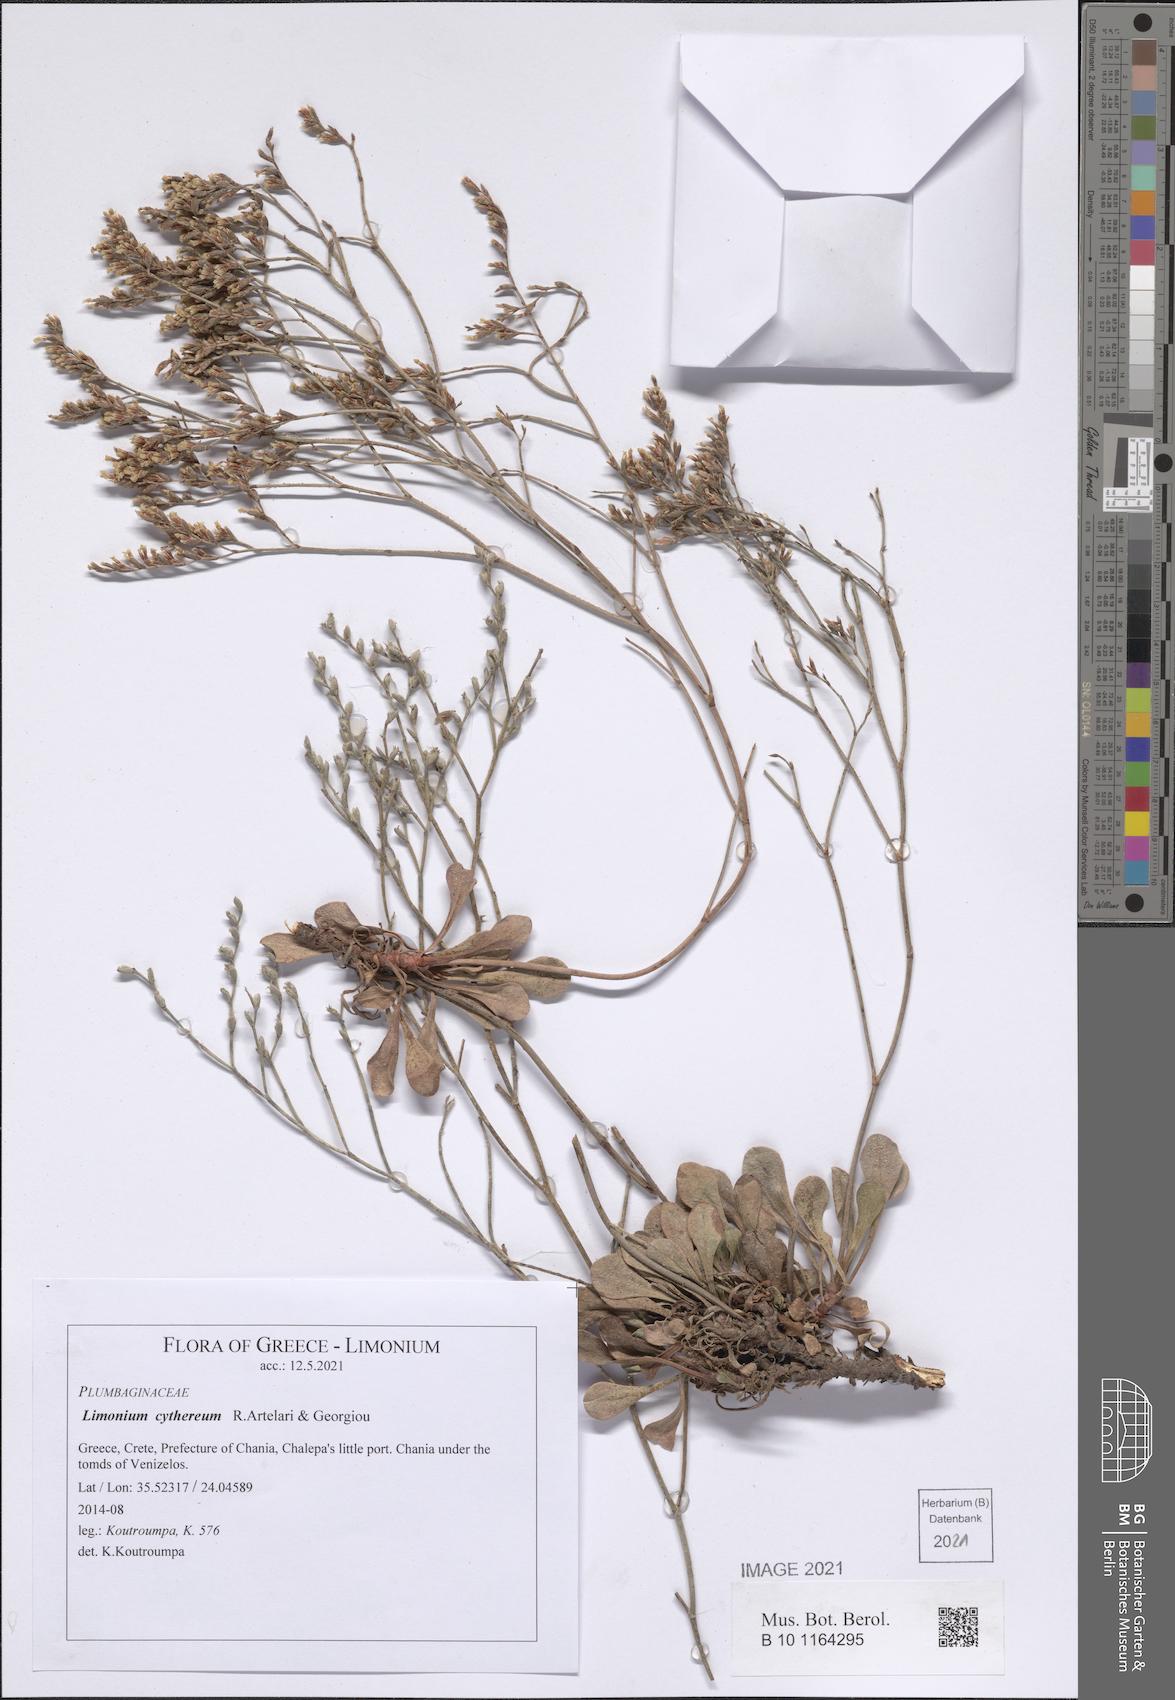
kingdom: Plantae
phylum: Tracheophyta
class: Magnoliopsida
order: Caryophyllales
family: Plumbaginaceae
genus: Limonium
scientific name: Limonium cythereum
